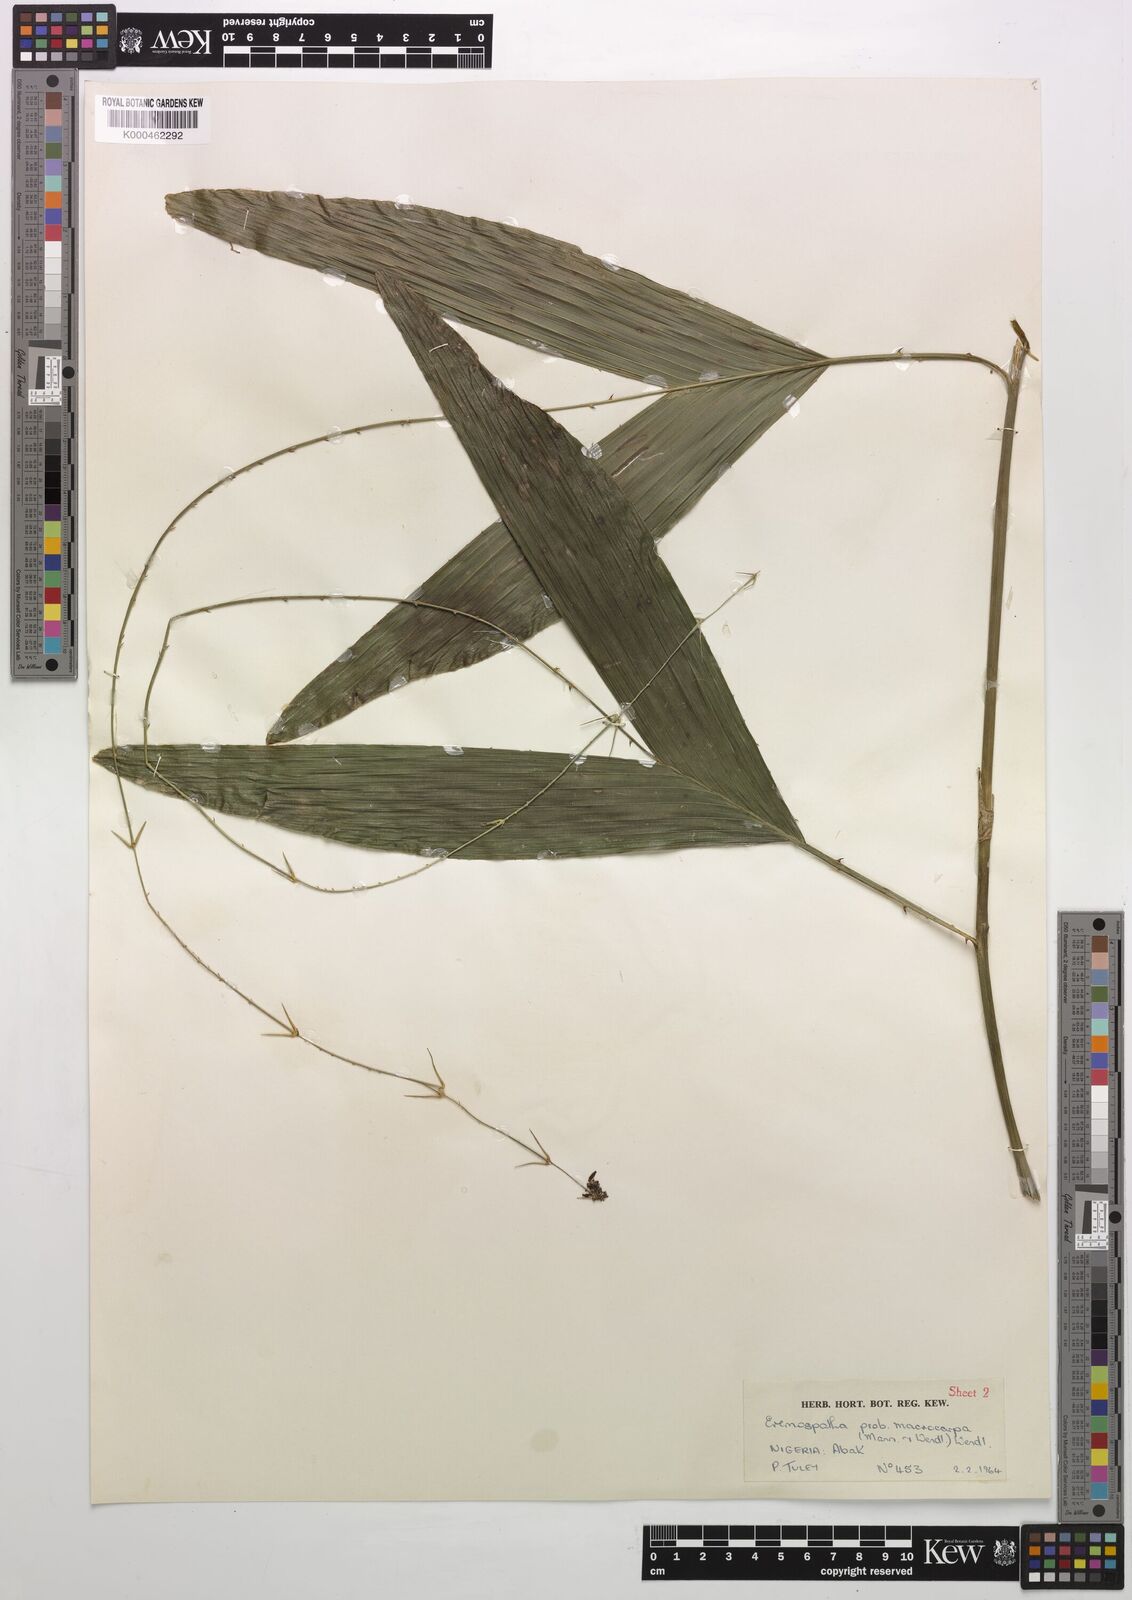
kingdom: Plantae
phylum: Tracheophyta
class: Liliopsida
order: Arecales
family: Arecaceae
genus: Eremospatha
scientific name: Eremospatha
